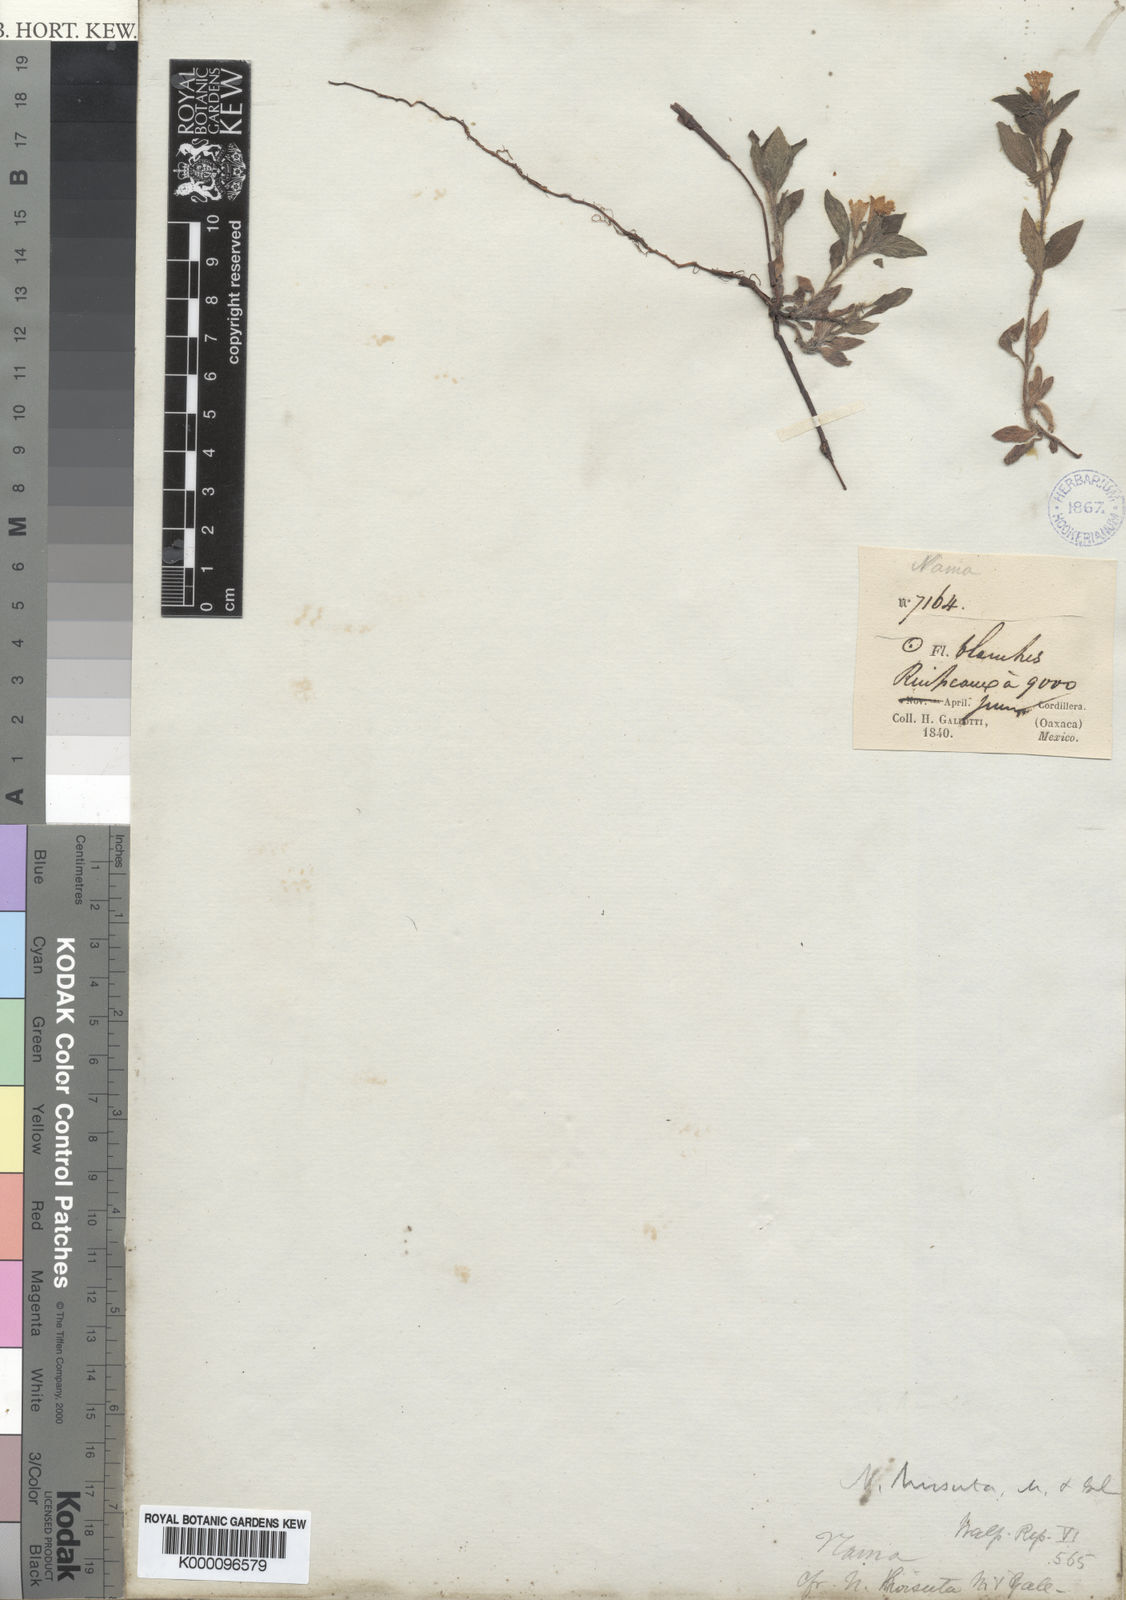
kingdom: Plantae
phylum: Tracheophyta
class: Magnoliopsida
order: Boraginales
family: Namaceae
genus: Nama
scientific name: Nama hirsuta
